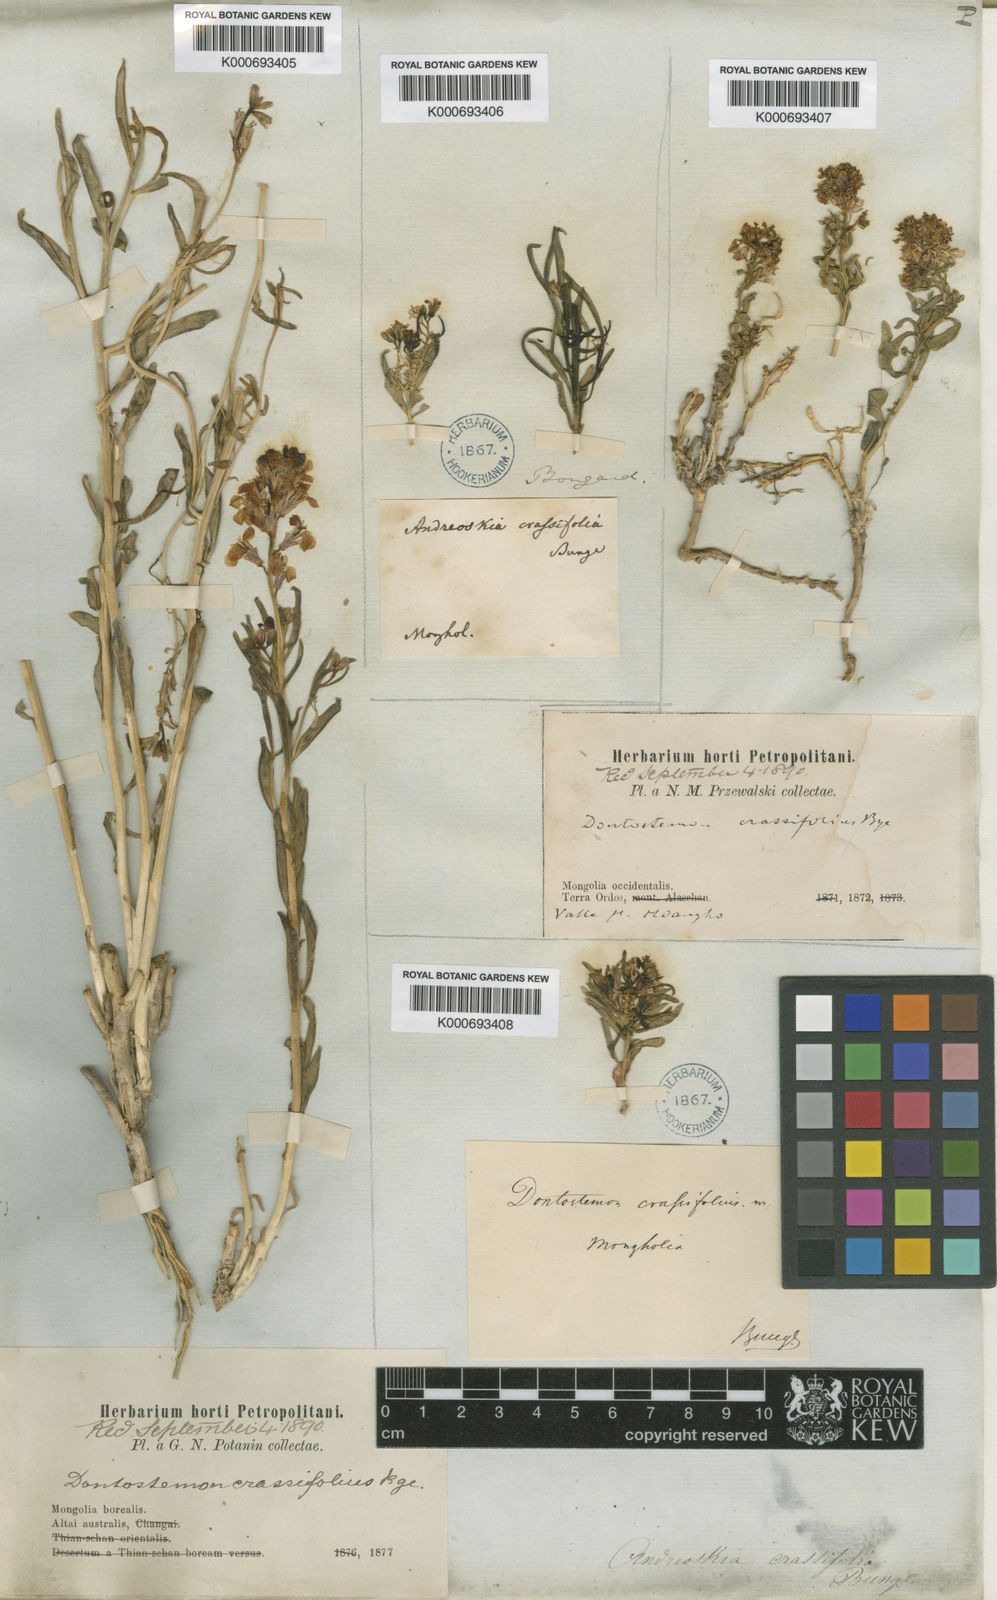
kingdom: Plantae
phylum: Tracheophyta
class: Magnoliopsida
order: Brassicales
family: Brassicaceae
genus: Dontostemon
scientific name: Dontostemon
